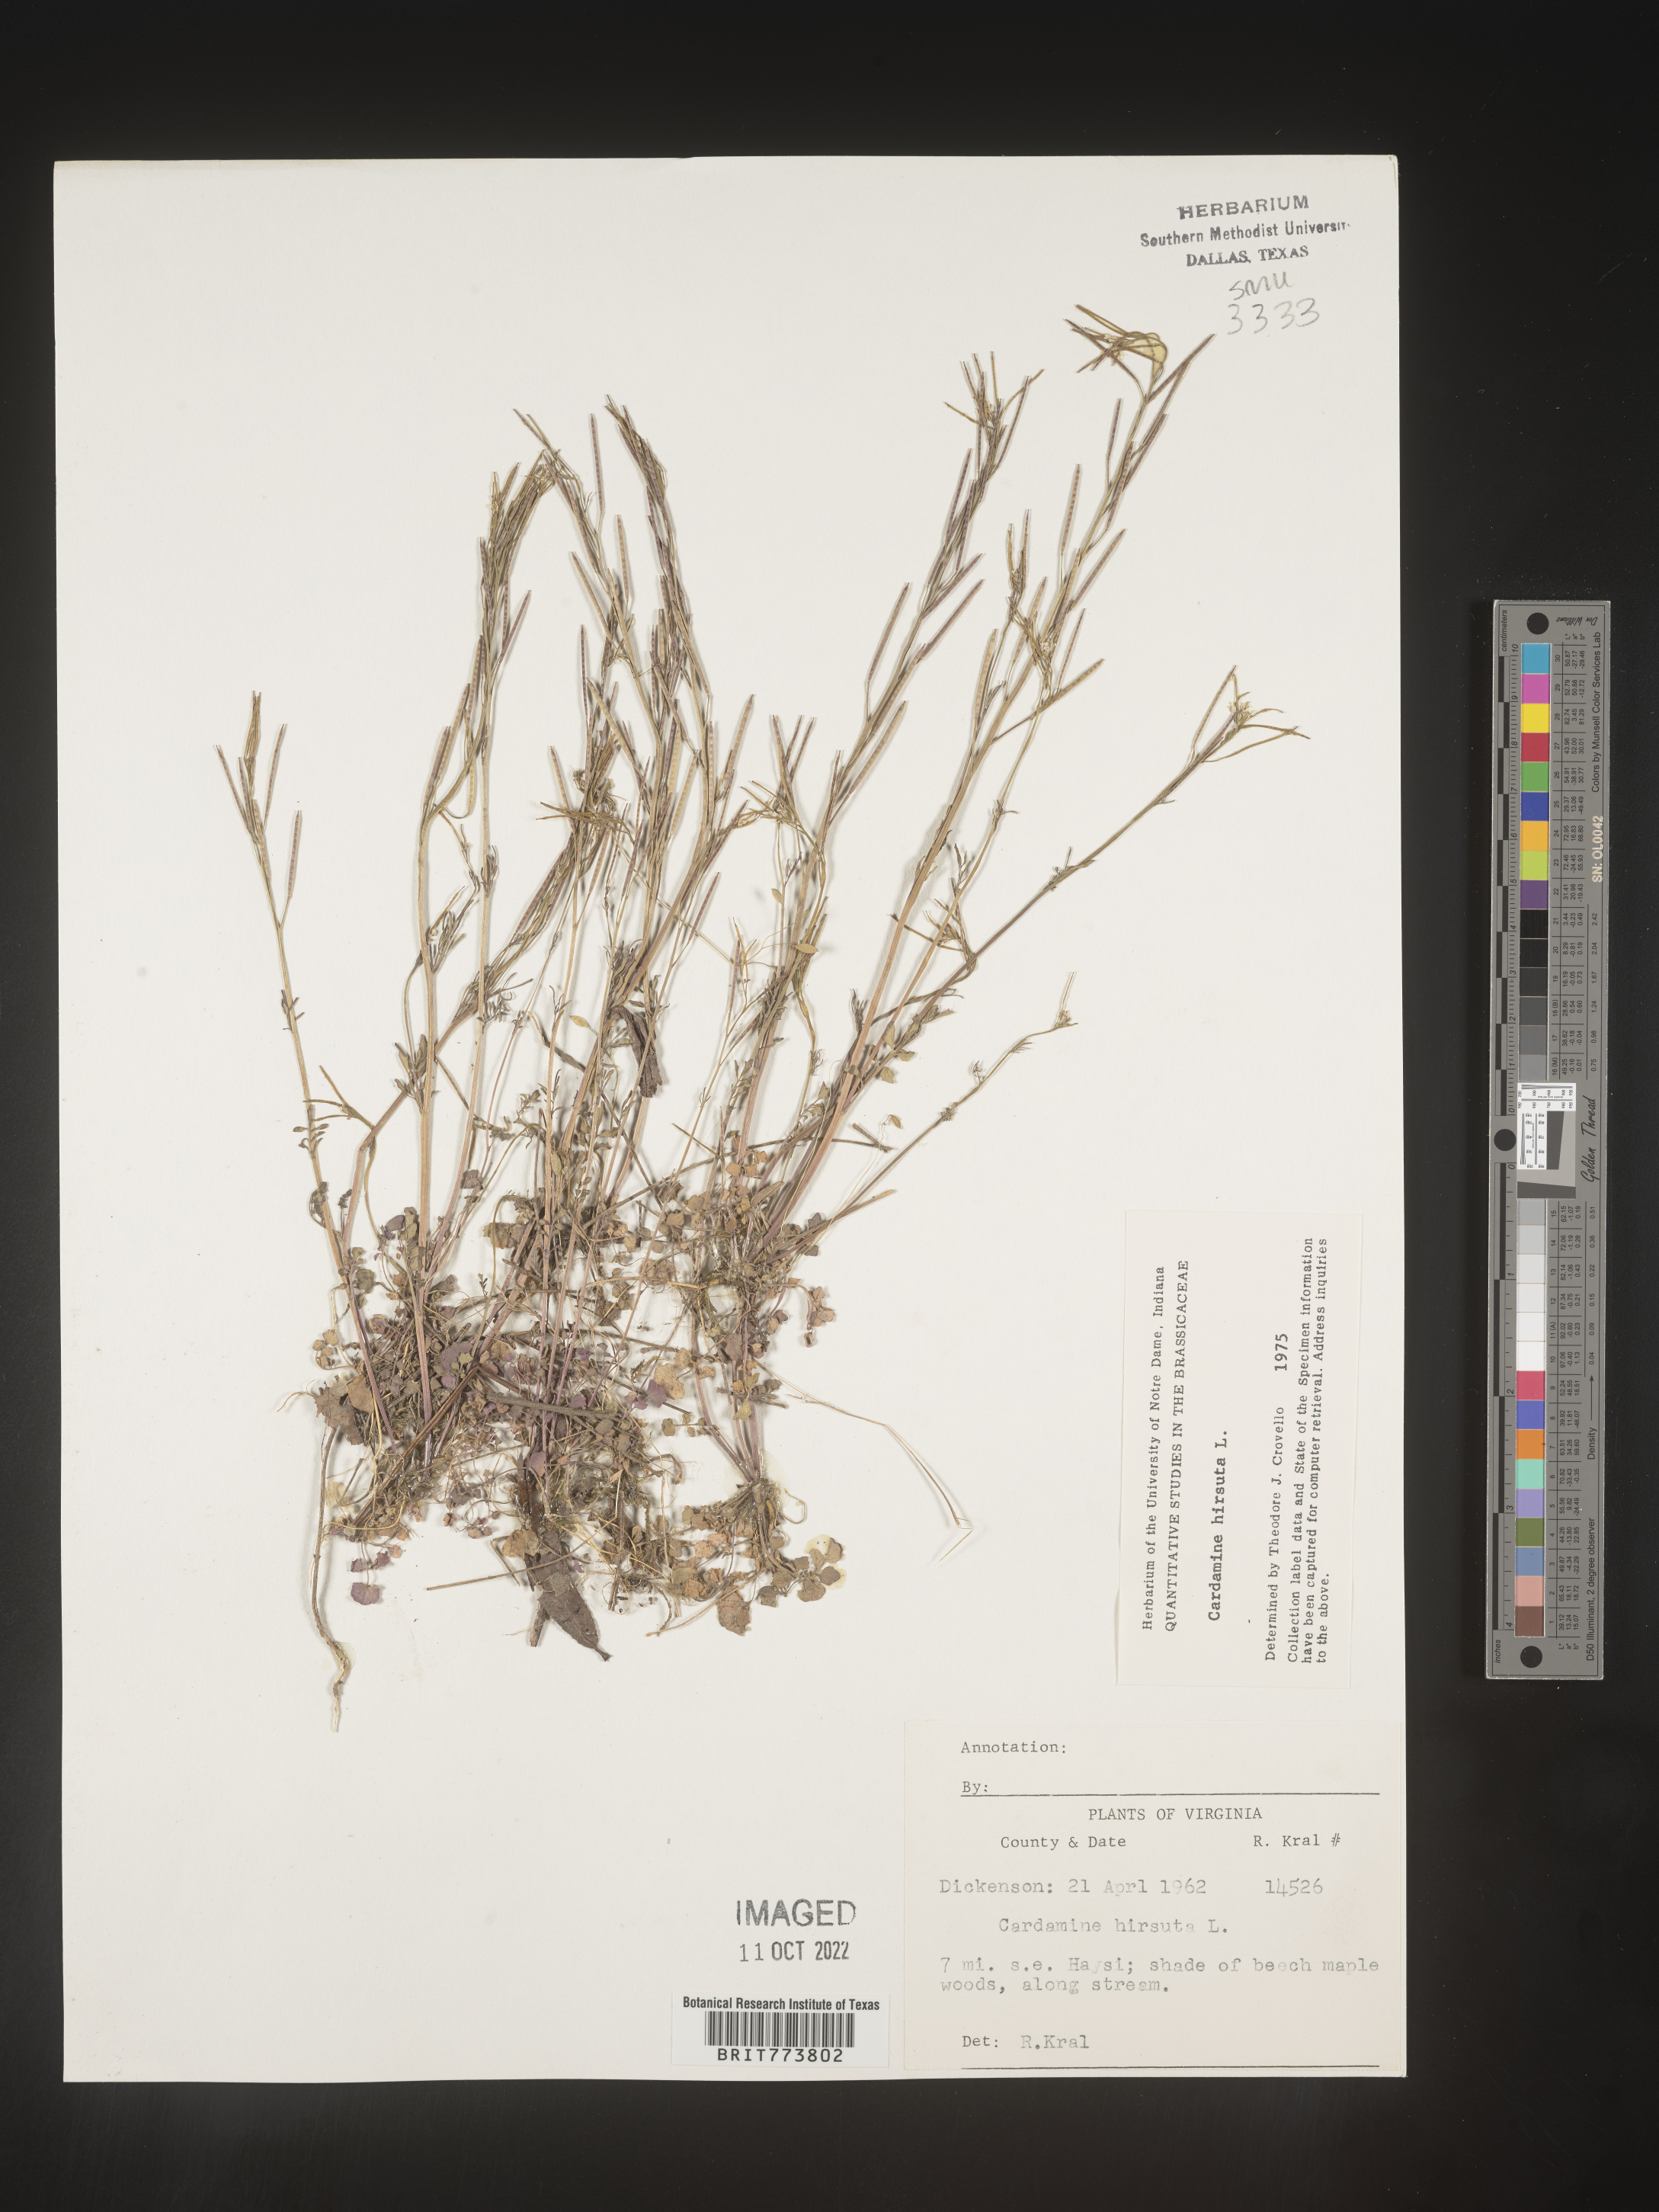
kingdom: Plantae
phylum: Tracheophyta
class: Magnoliopsida
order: Brassicales
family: Brassicaceae
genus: Cardamine
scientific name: Cardamine hirsuta
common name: Hairy bittercress
